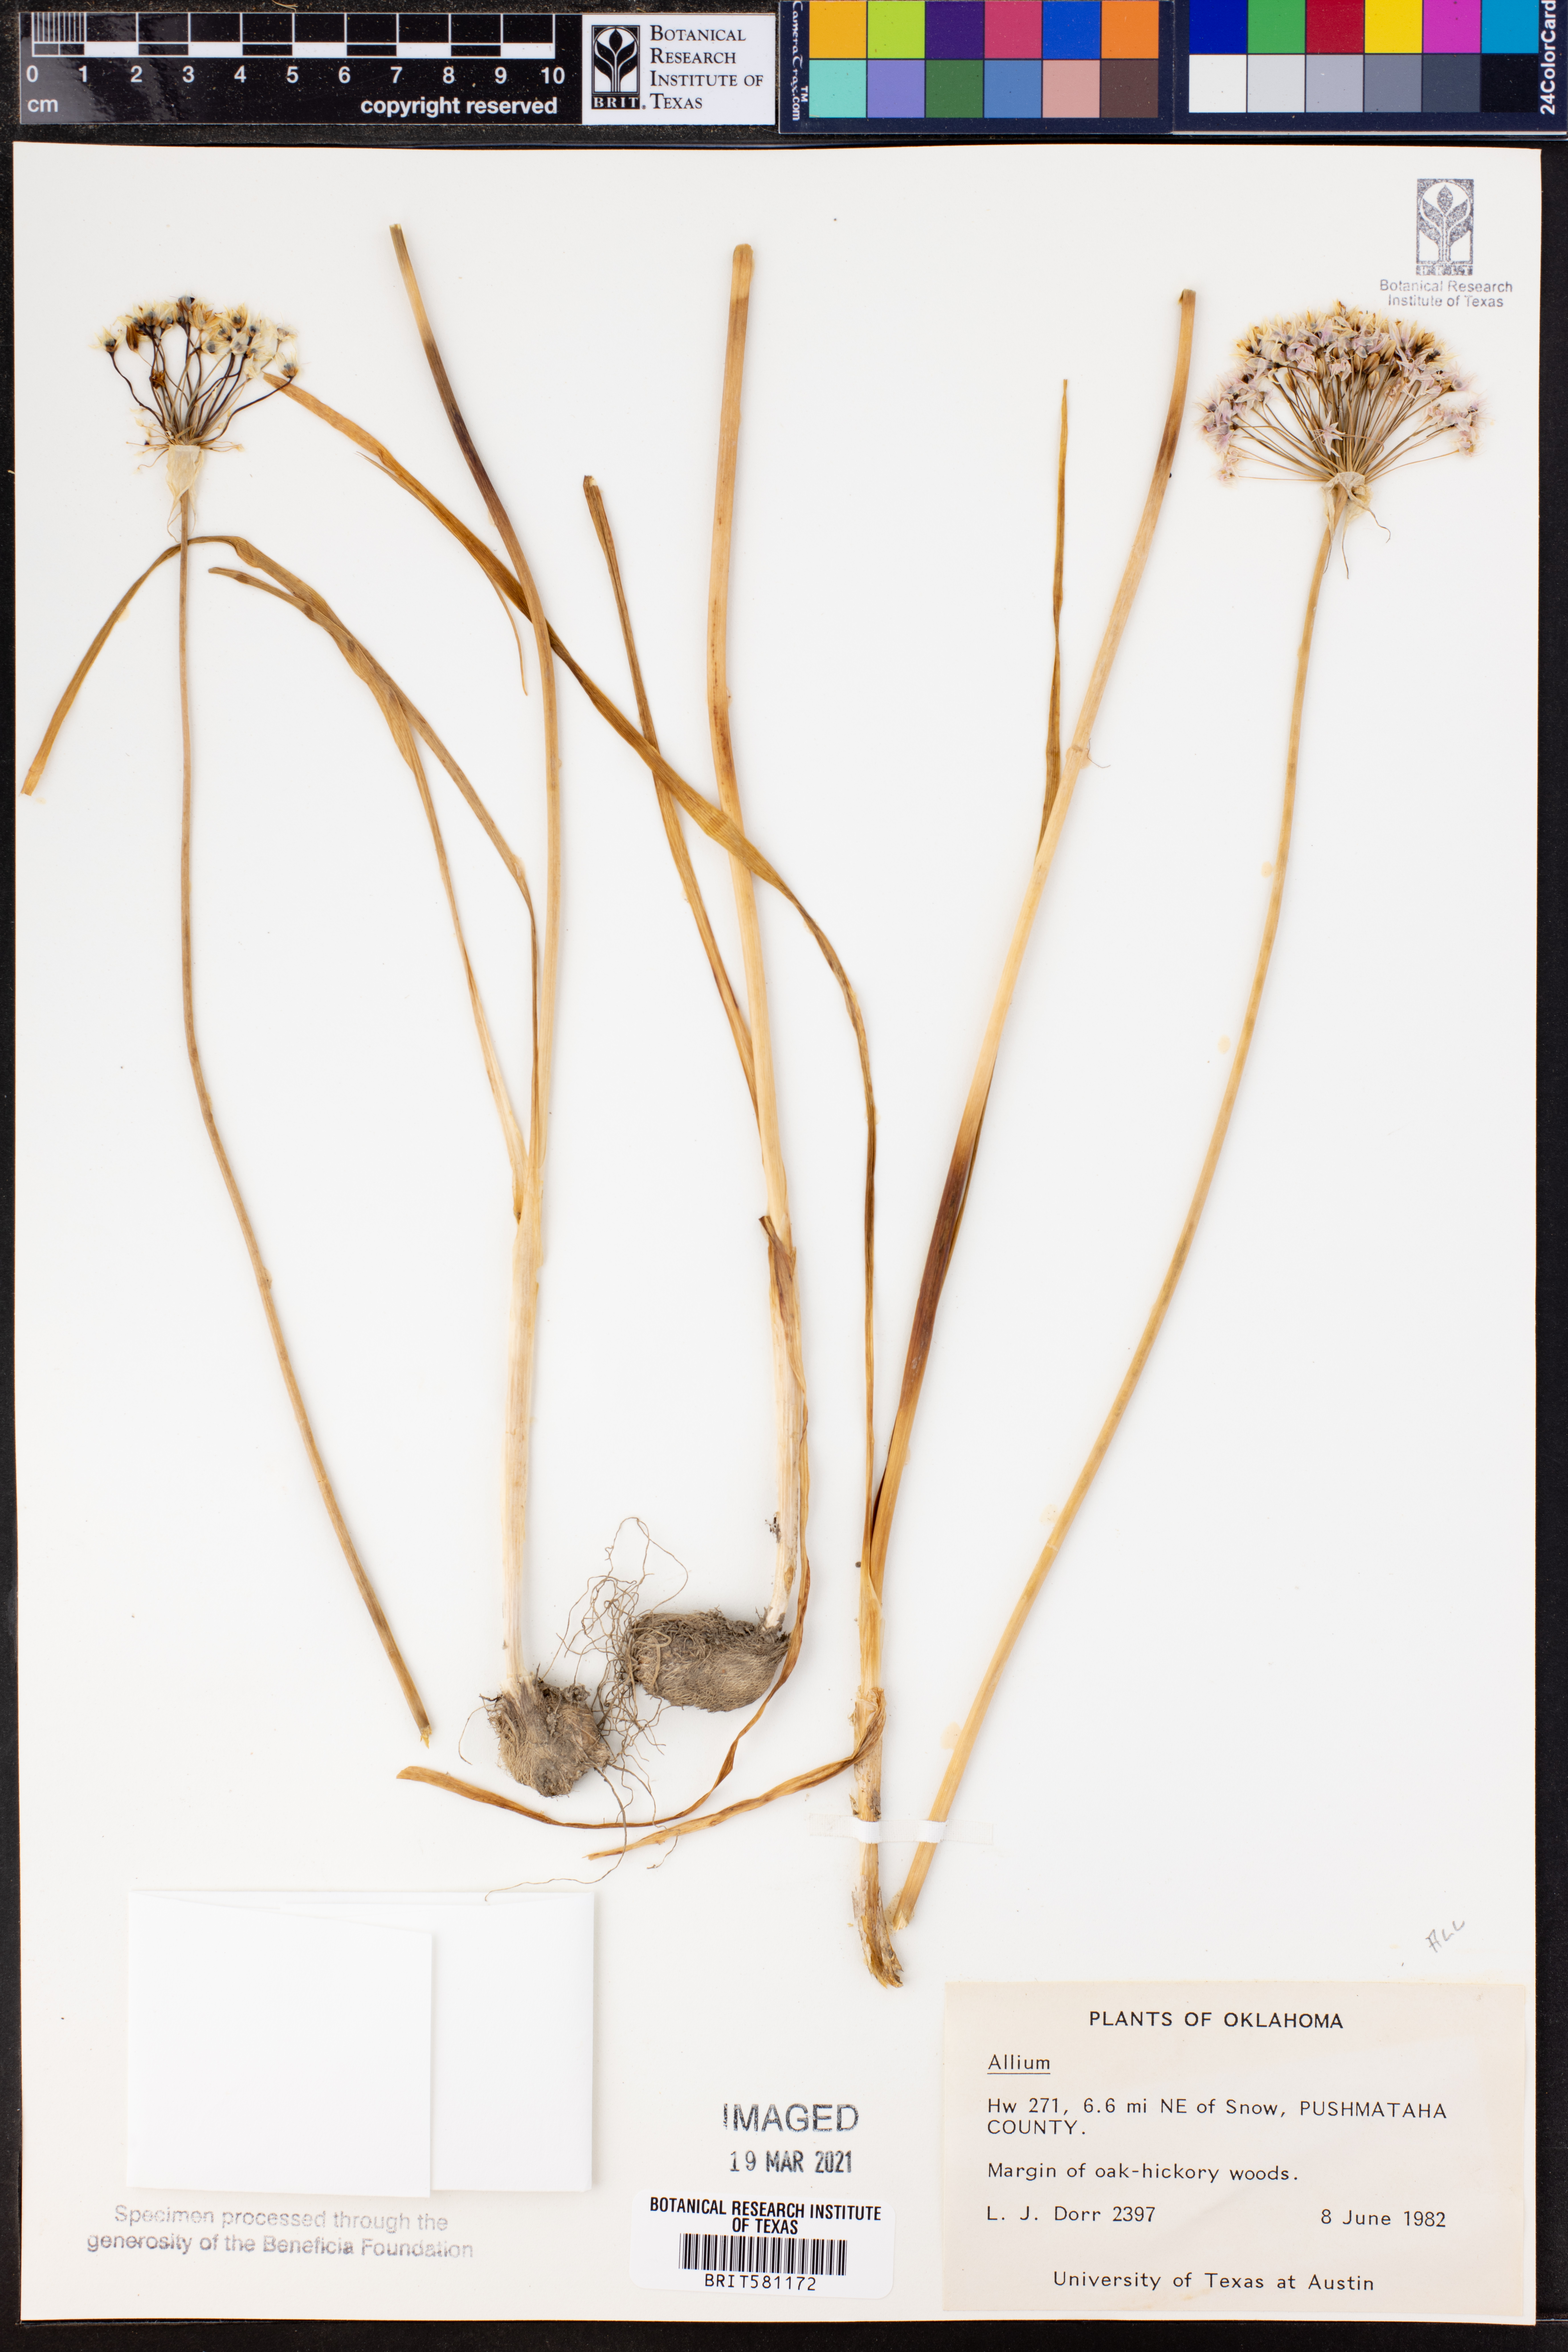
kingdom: Plantae
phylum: Tracheophyta
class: Liliopsida
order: Asparagales
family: Amaryllidaceae
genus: Allium
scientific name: Allium
